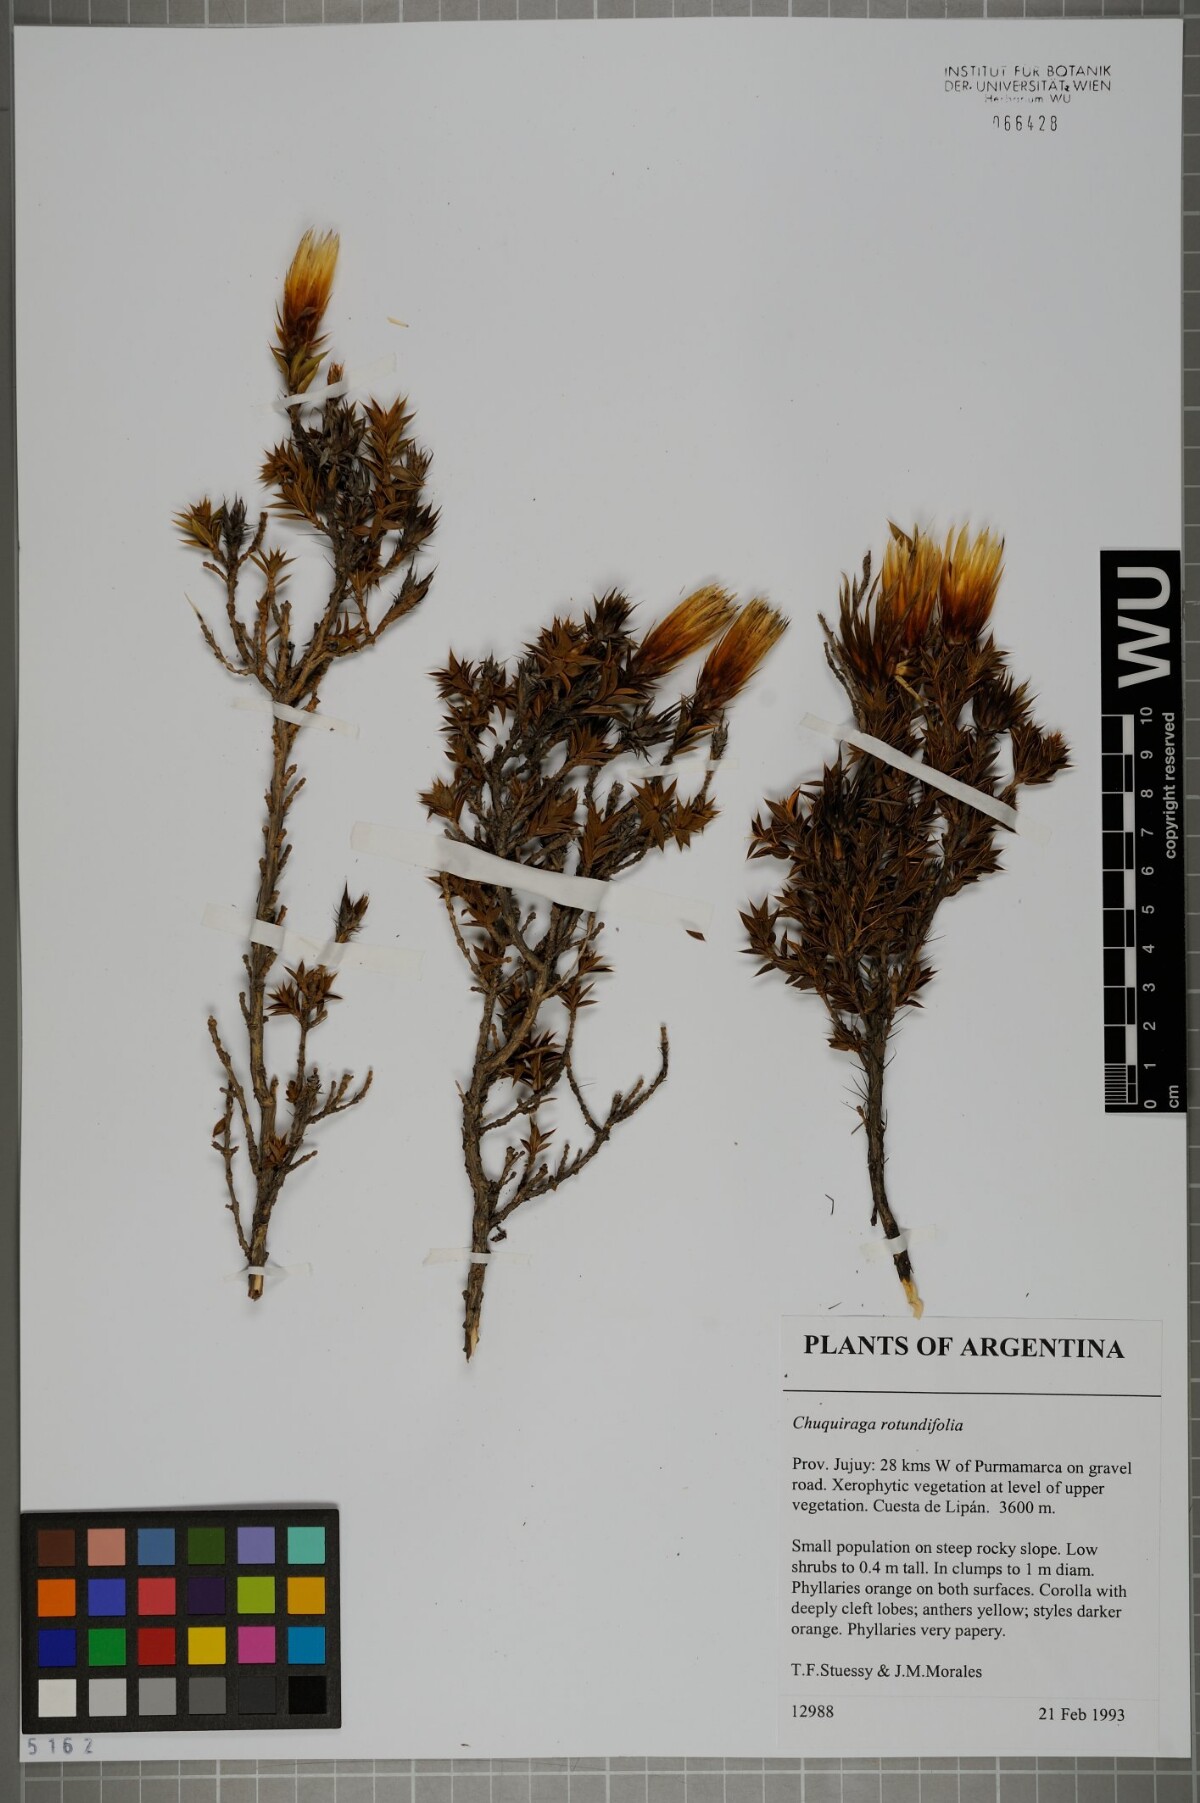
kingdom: Plantae
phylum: Tracheophyta
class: Magnoliopsida
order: Asterales
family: Asteraceae
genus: Chuquiraga
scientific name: Chuquiraga spinosa
